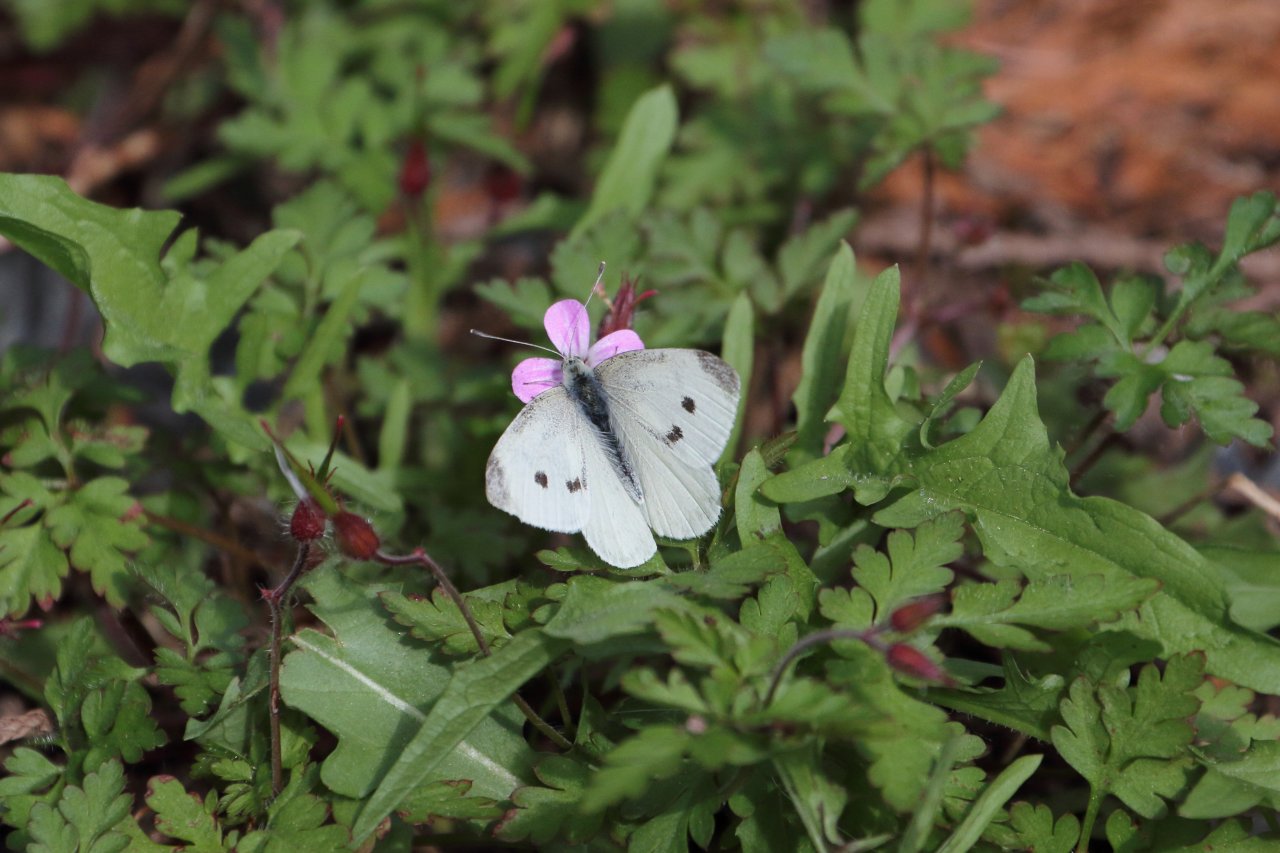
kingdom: Animalia
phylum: Arthropoda
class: Insecta
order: Lepidoptera
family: Pieridae
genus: Pieris
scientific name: Pieris rapae
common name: Cabbage White
